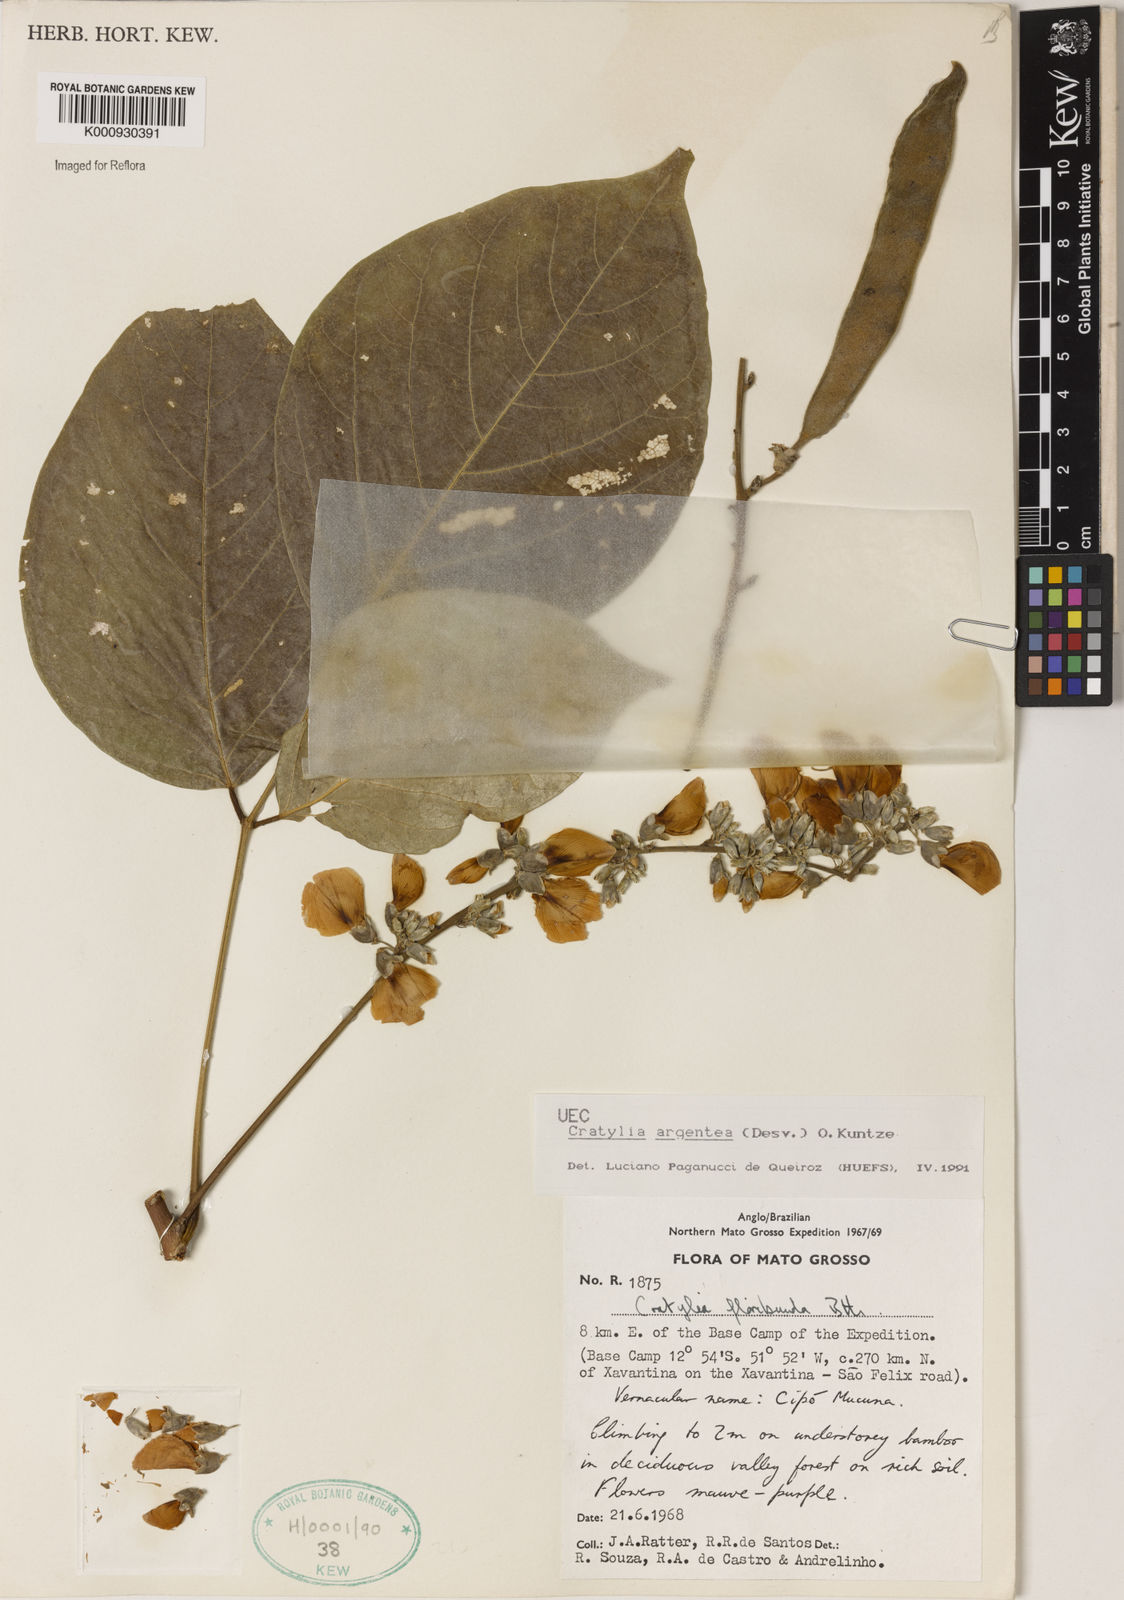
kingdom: Plantae
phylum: Tracheophyta
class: Magnoliopsida
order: Fabales
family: Fabaceae
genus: Cratylia
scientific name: Cratylia argentea
